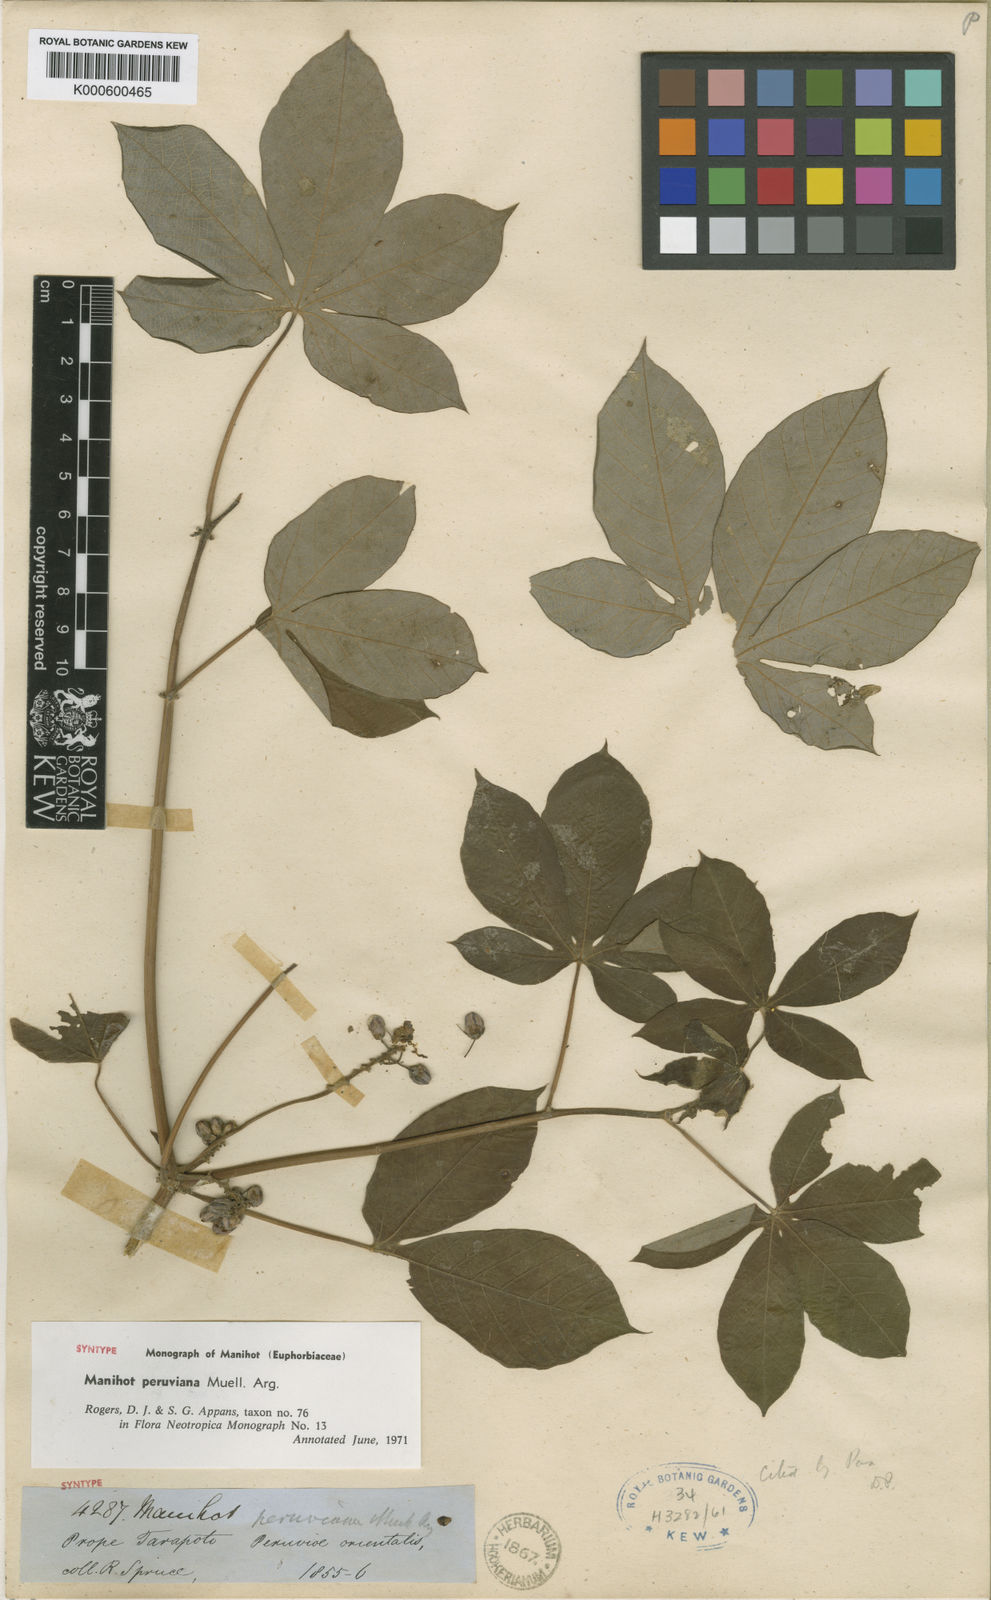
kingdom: Plantae
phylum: Tracheophyta
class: Magnoliopsida
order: Malpighiales
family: Euphorbiaceae
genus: Manihot
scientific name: Manihot
